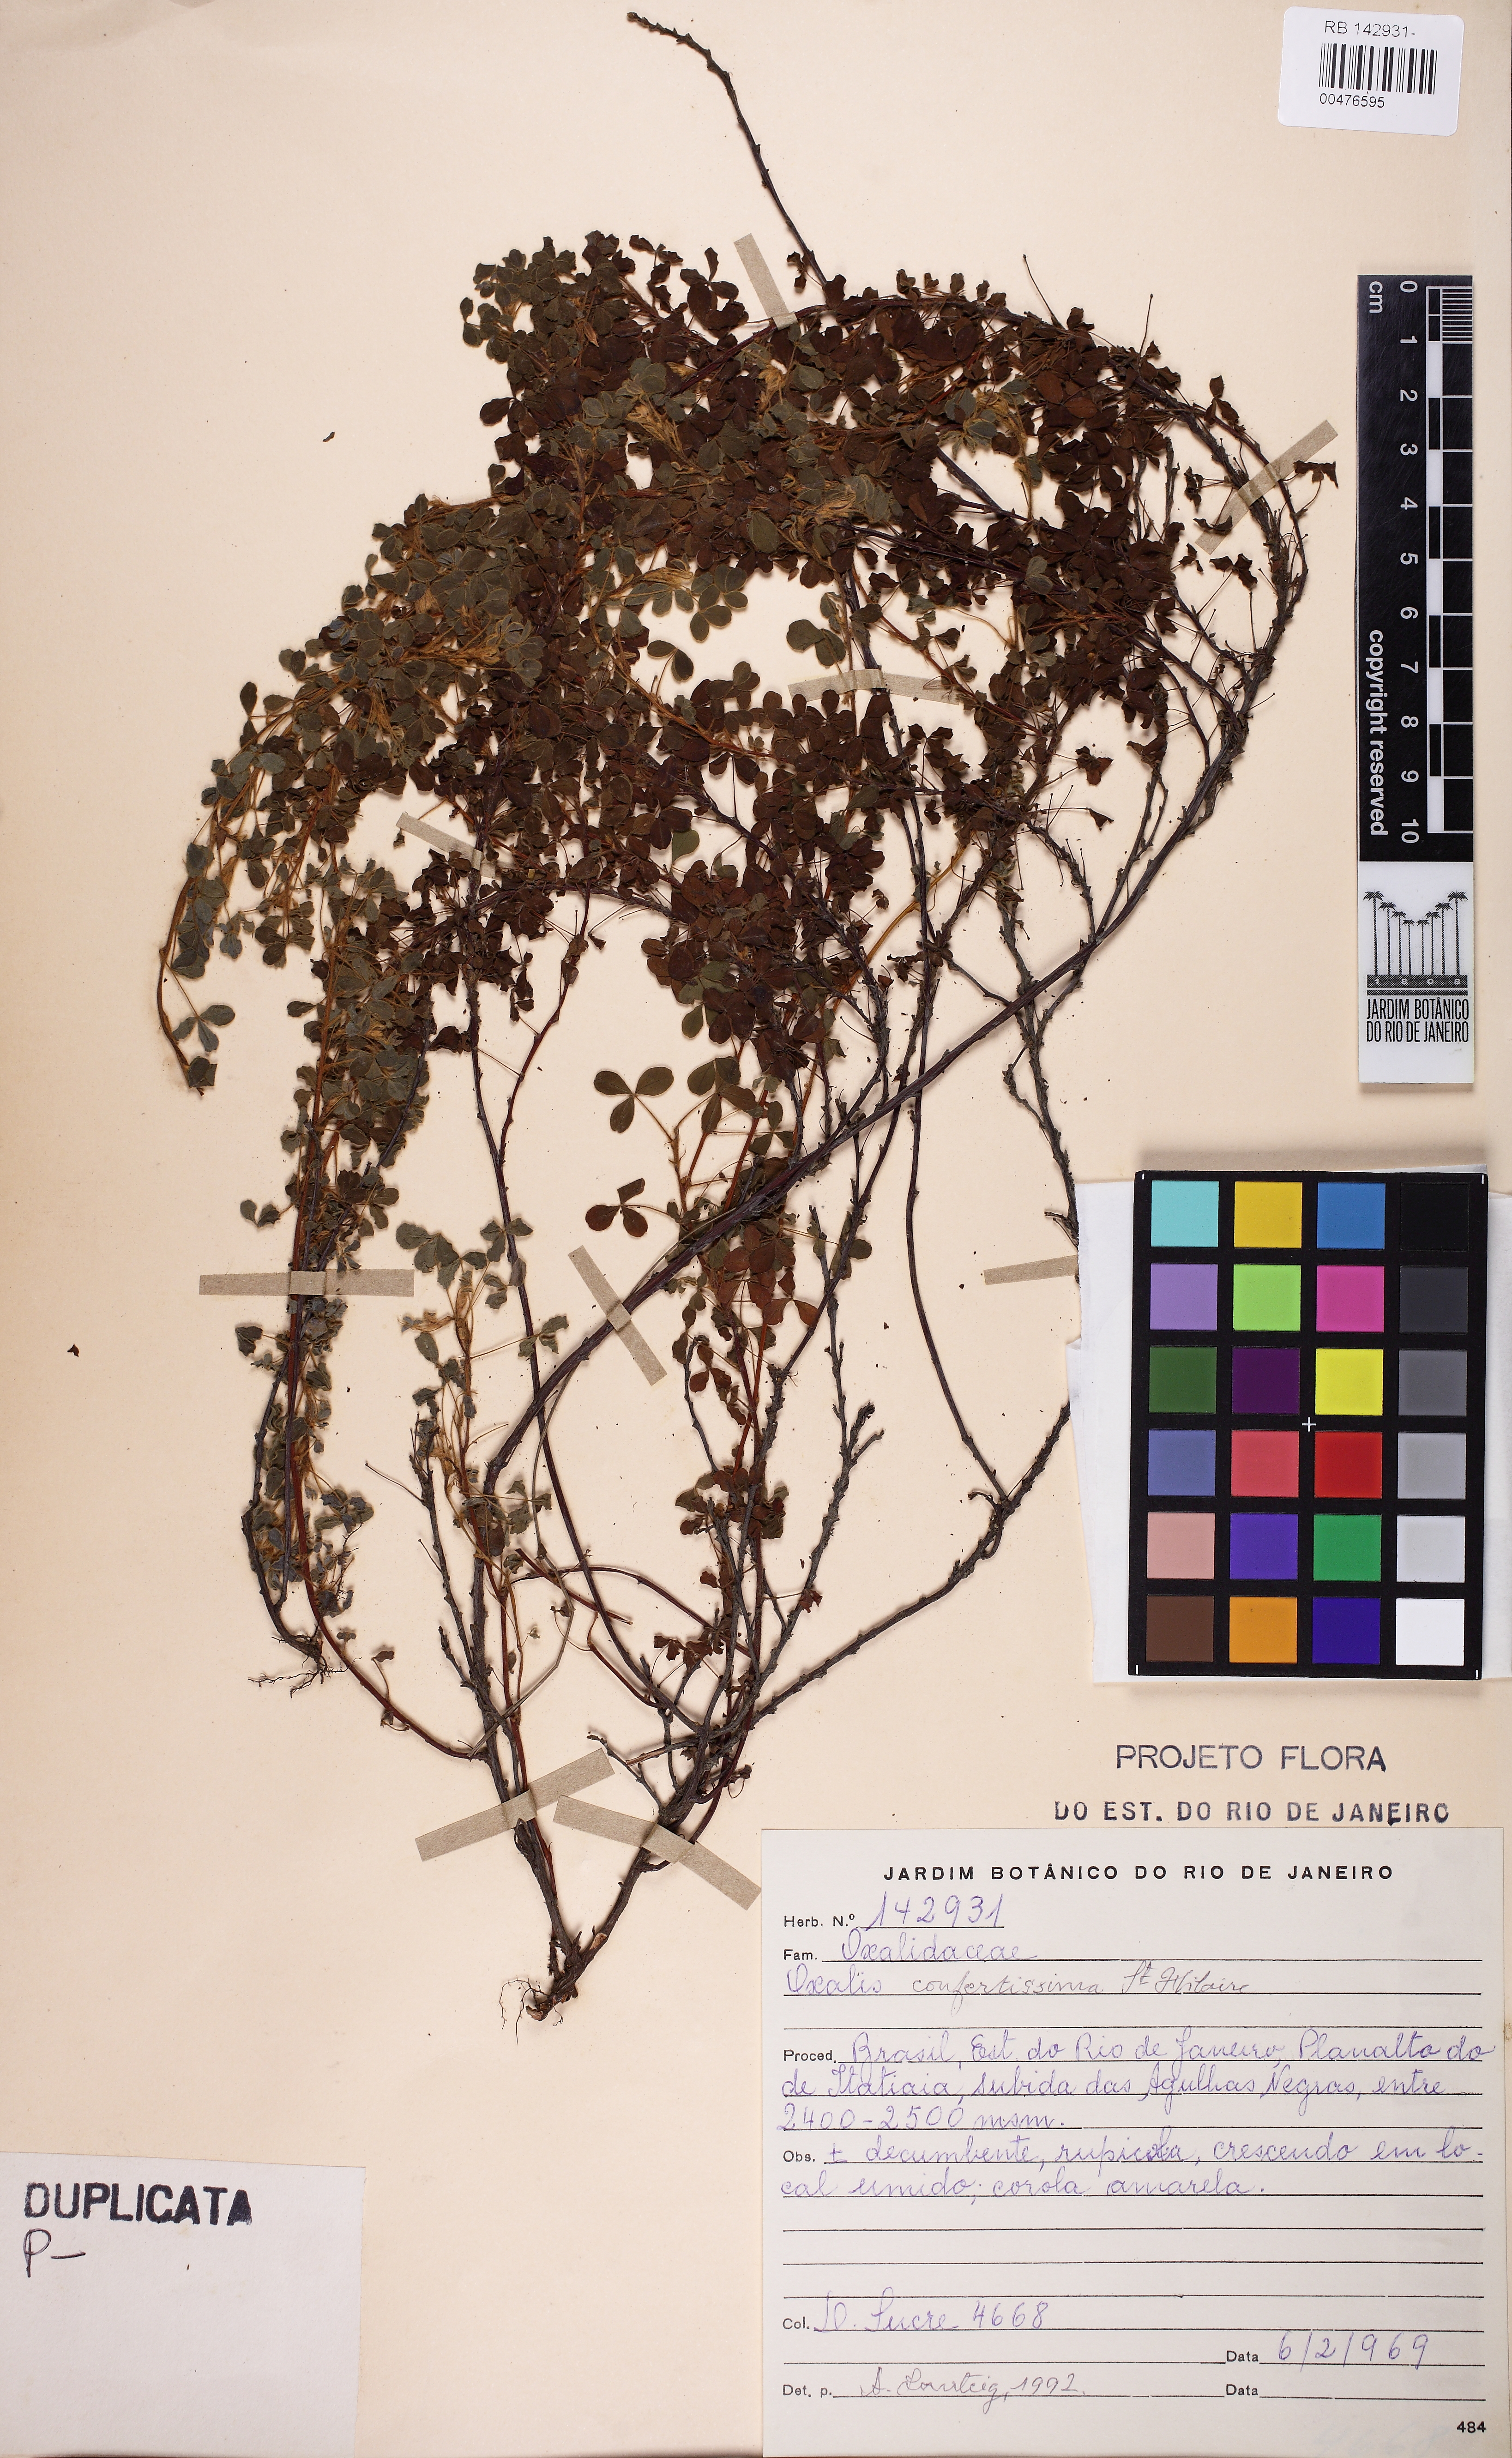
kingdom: Plantae
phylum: Tracheophyta
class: Magnoliopsida
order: Oxalidales
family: Oxalidaceae
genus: Oxalis
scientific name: Oxalis confertissima
